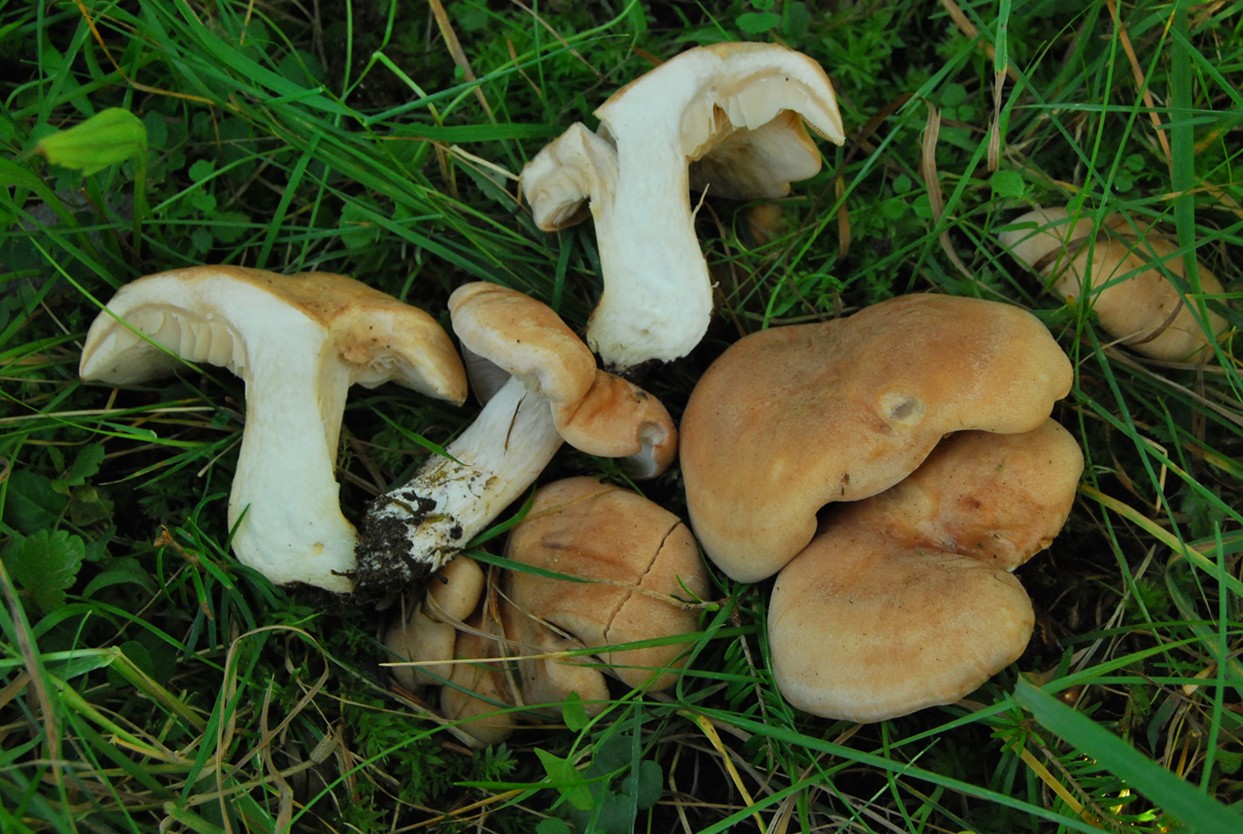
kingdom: Fungi
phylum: Basidiomycota
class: Agaricomycetes
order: Agaricales
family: Tricholomataceae
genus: Leucopaxillus
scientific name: Leucopaxillus nauseosodulcis
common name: vammel tragtridderhat
